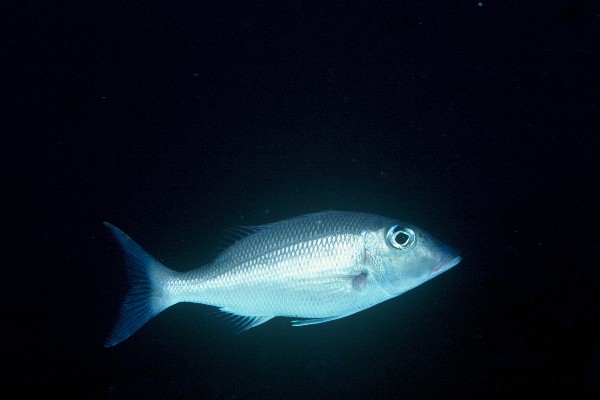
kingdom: Animalia
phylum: Chordata
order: Perciformes
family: Lethrinidae
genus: Lethrinus
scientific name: Lethrinus rubrioperculatus
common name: Spotcheek emperor
